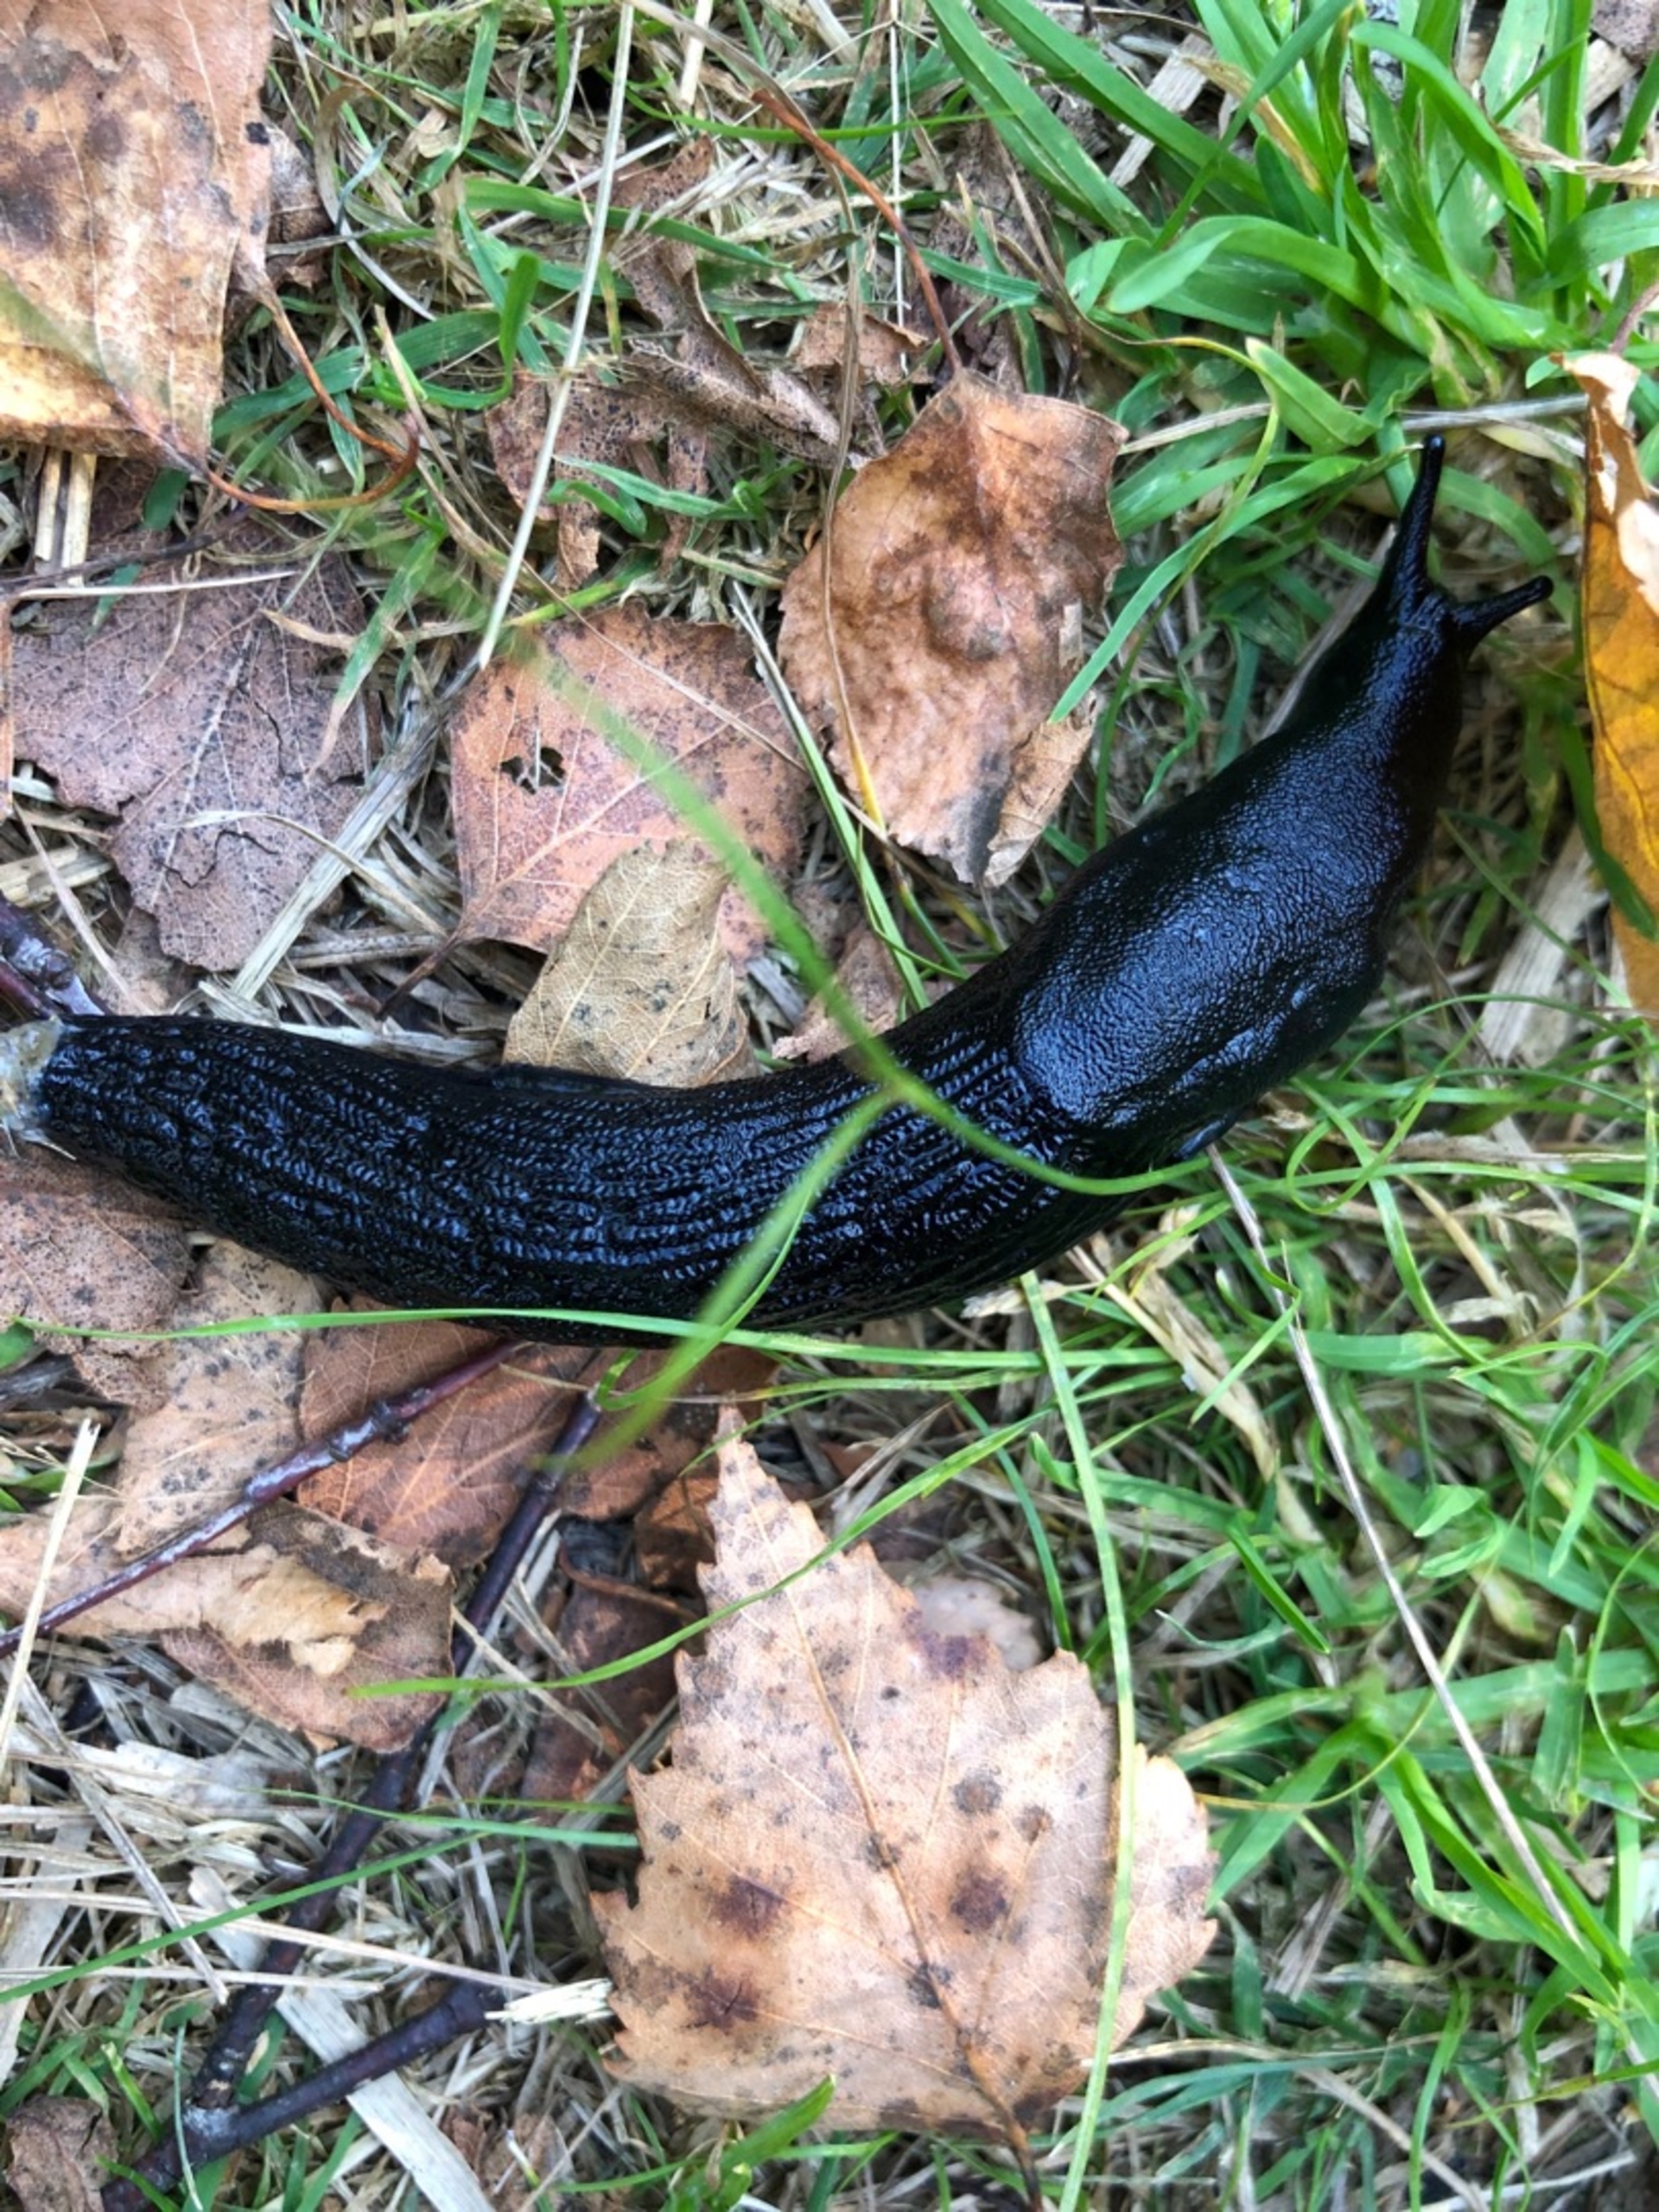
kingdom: Animalia
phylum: Mollusca
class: Gastropoda
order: Stylommatophora
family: Arionidae
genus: Arion
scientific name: Arion ater
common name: Sort skovsnegl
